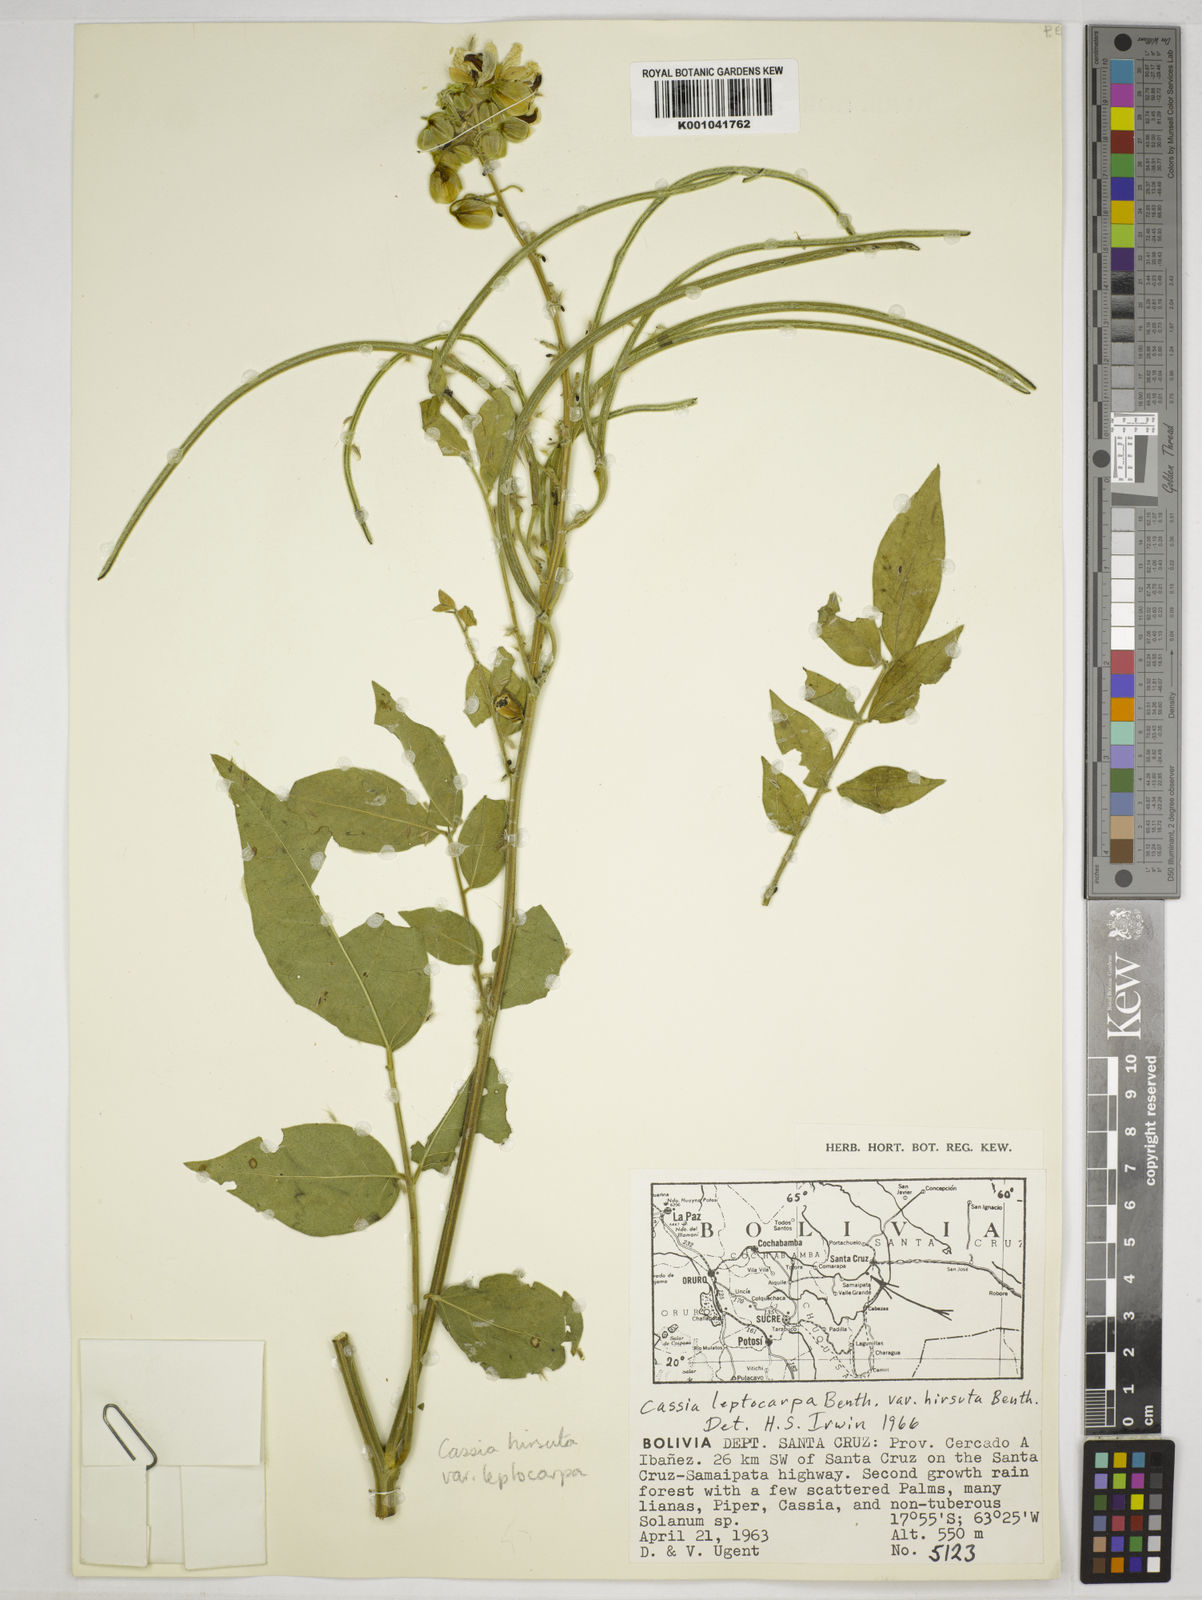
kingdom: Plantae
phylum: Tracheophyta
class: Magnoliopsida
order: Fabales
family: Fabaceae
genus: Senna
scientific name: Senna hirsuta
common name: Woolly senna
